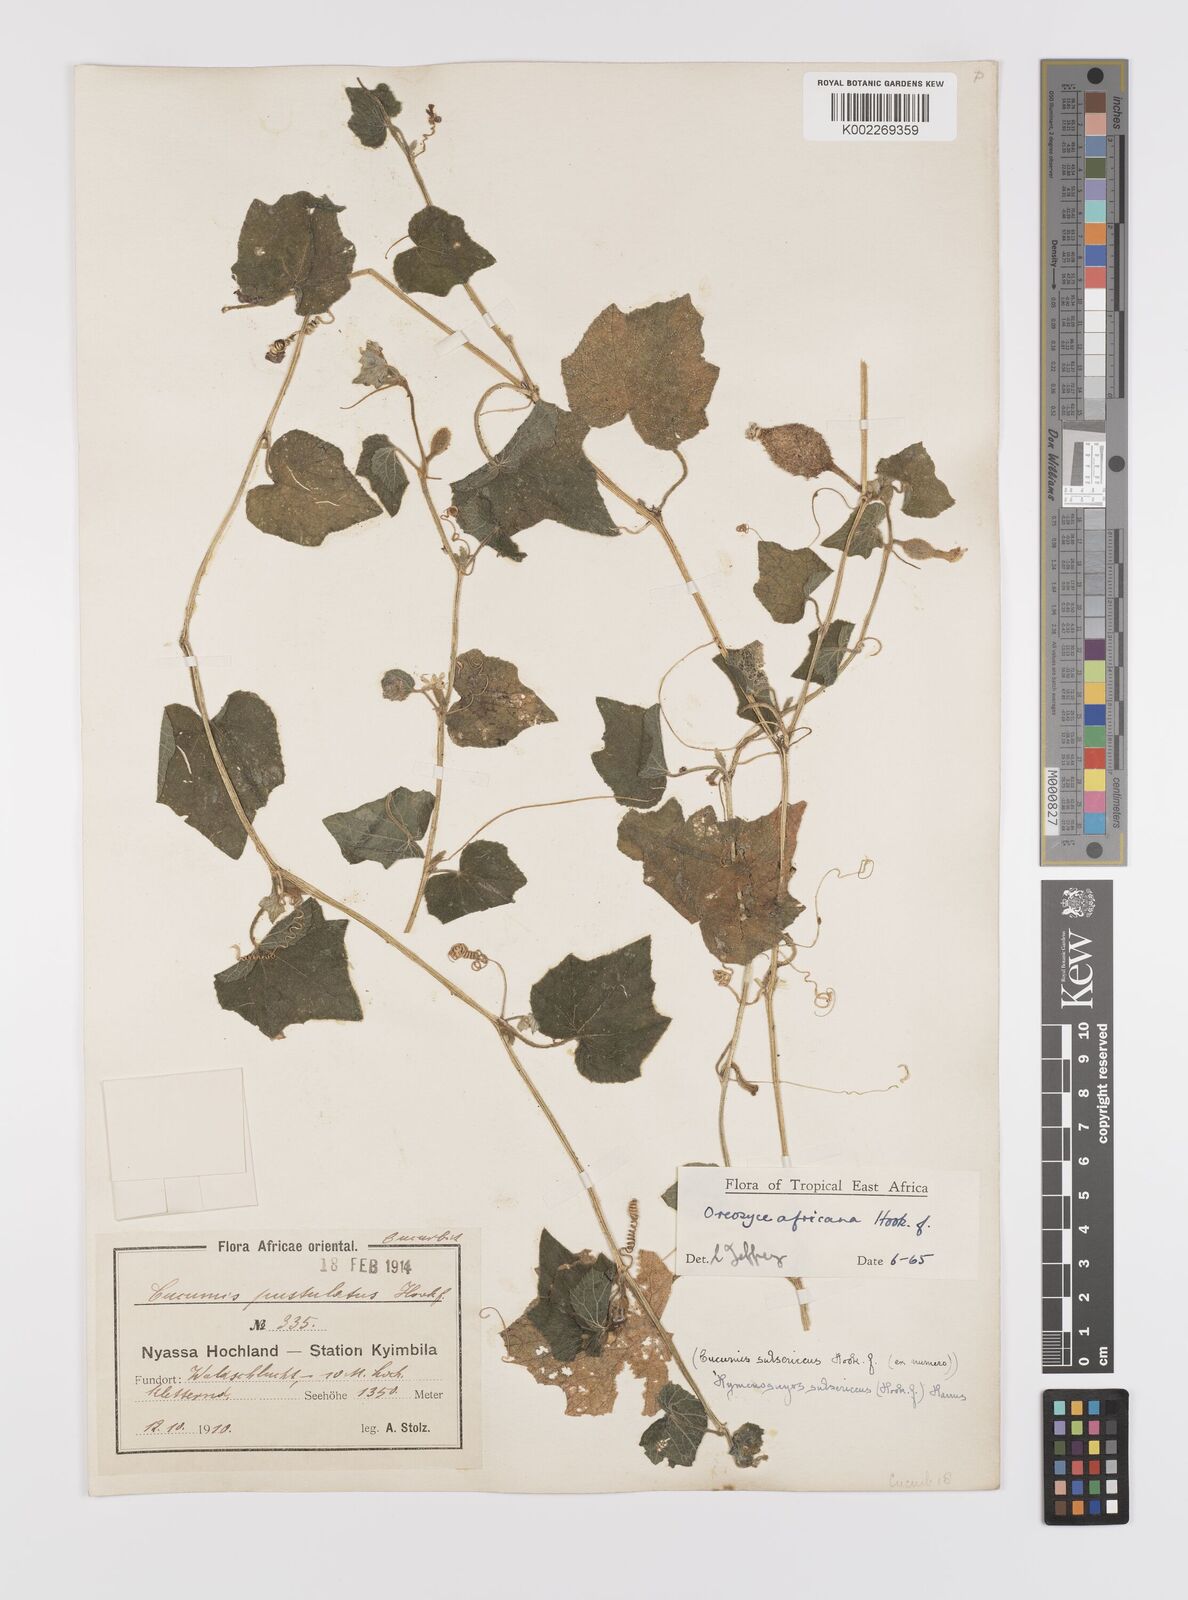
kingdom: Plantae
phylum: Tracheophyta
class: Magnoliopsida
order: Cucurbitales
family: Cucurbitaceae
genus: Cucumis
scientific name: Cucumis oreosyce
